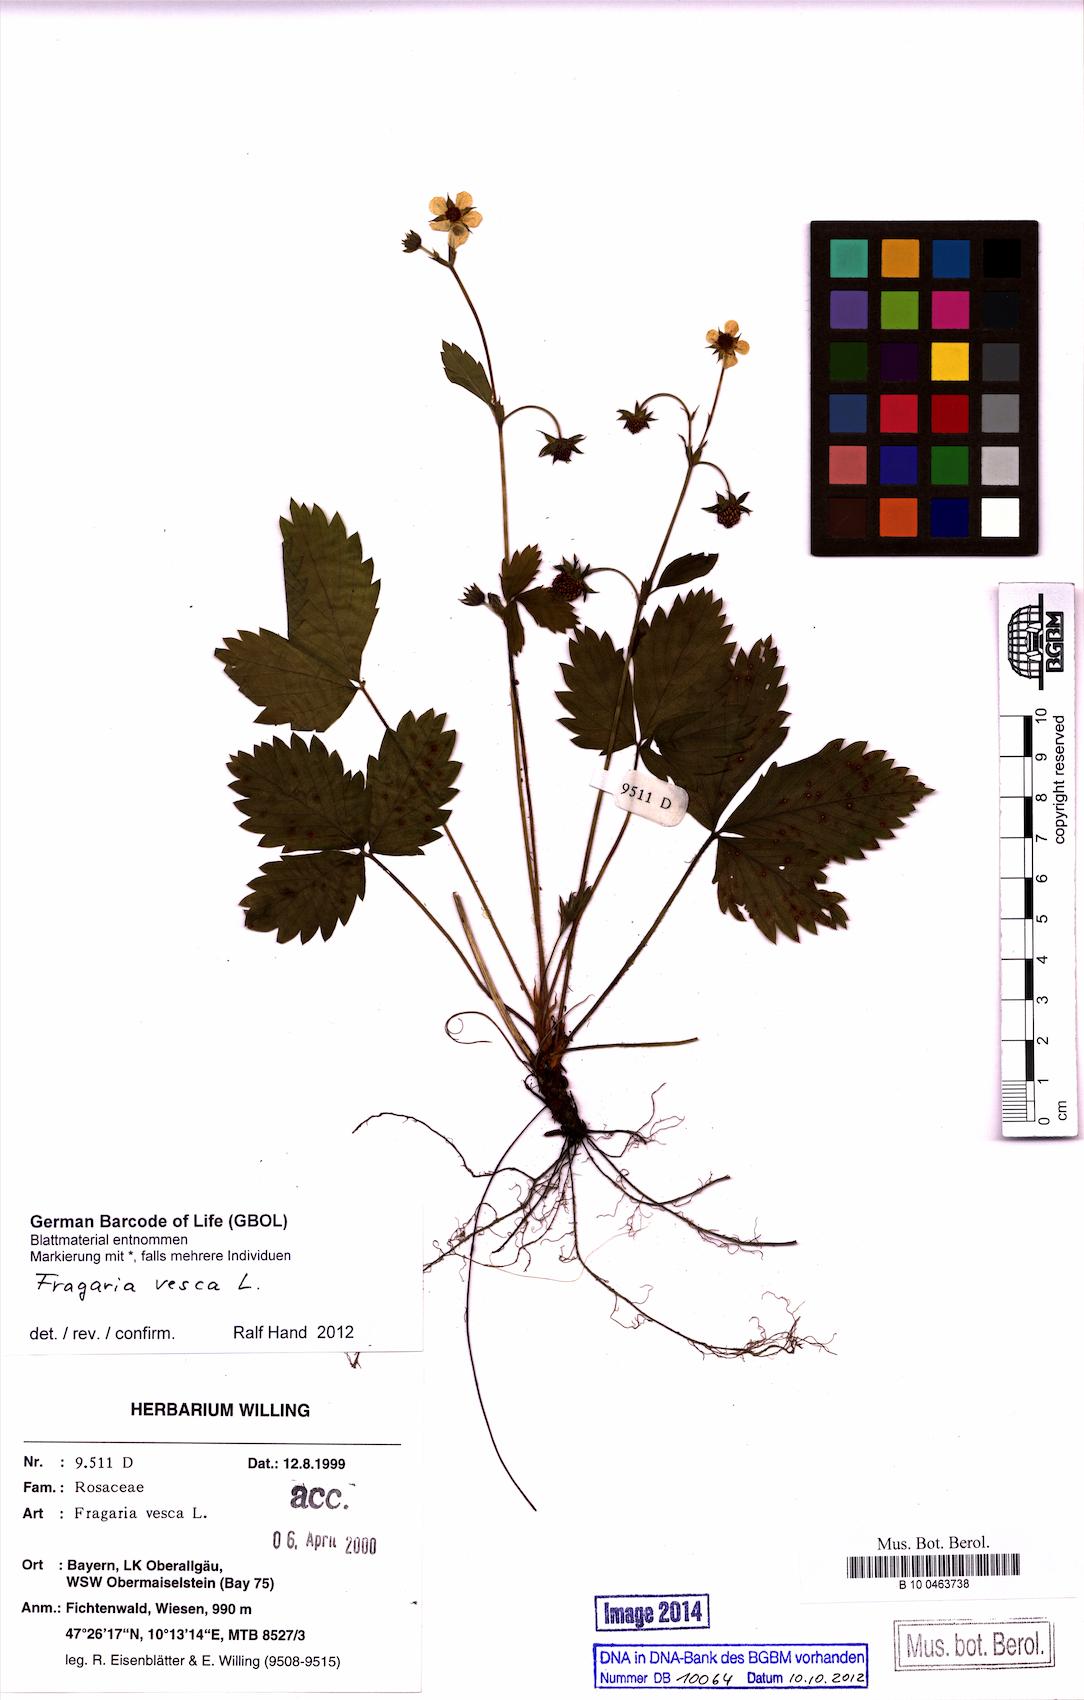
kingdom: Plantae
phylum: Tracheophyta
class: Magnoliopsida
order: Rosales
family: Rosaceae
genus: Fragaria
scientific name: Fragaria vesca
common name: Wild strawberry
